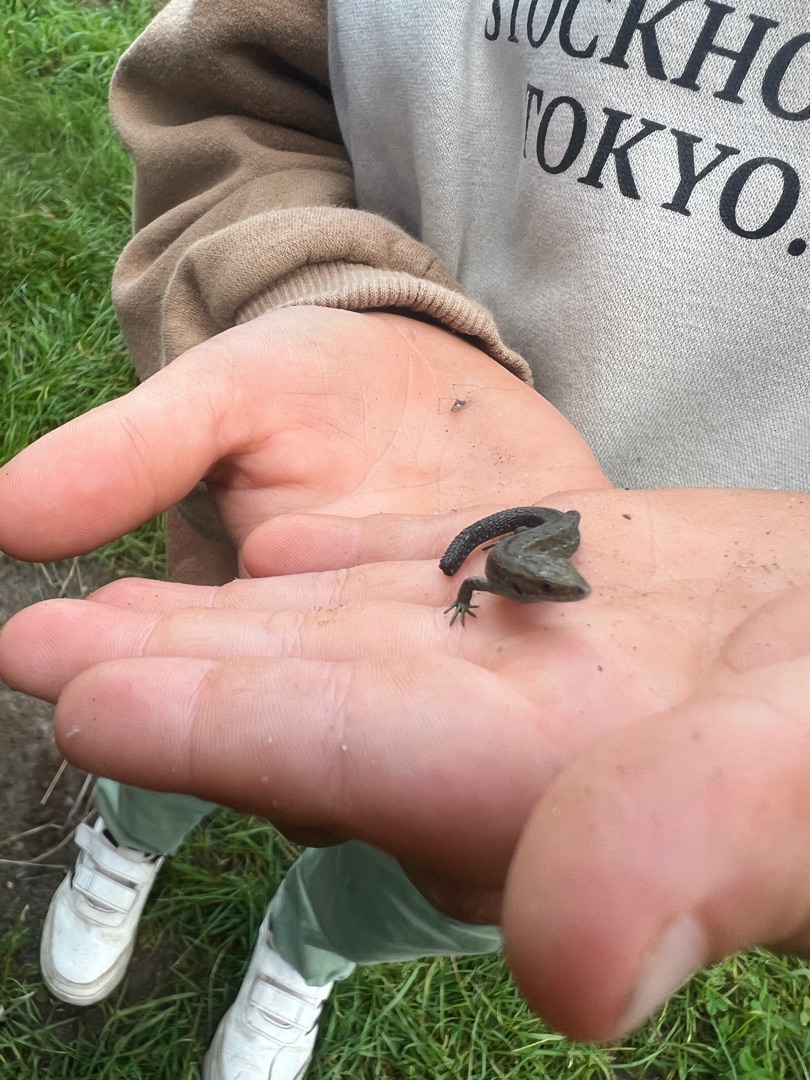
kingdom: Animalia
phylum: Chordata
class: Squamata
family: Lacertidae
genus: Zootoca
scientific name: Zootoca vivipara
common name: Skovfirben
